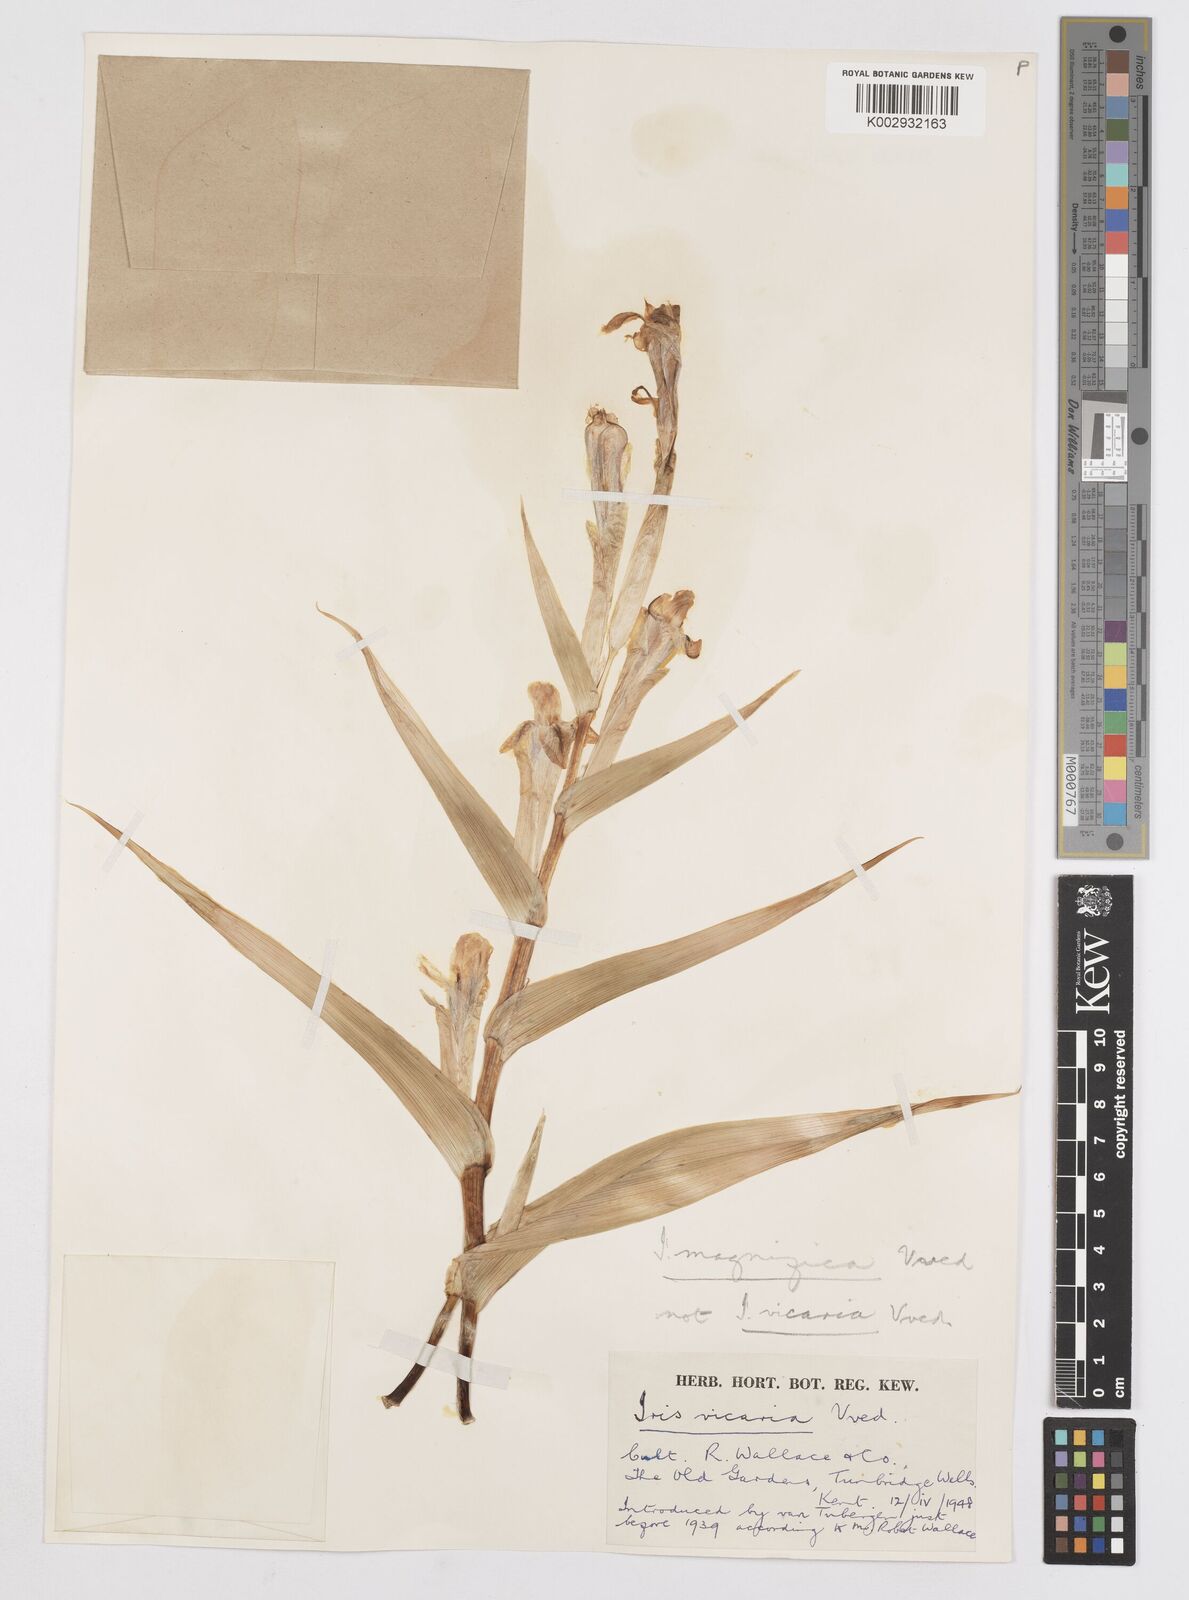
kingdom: Plantae
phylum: Tracheophyta
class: Liliopsida
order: Asparagales
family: Iridaceae
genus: Iris
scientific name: Iris magnifica
